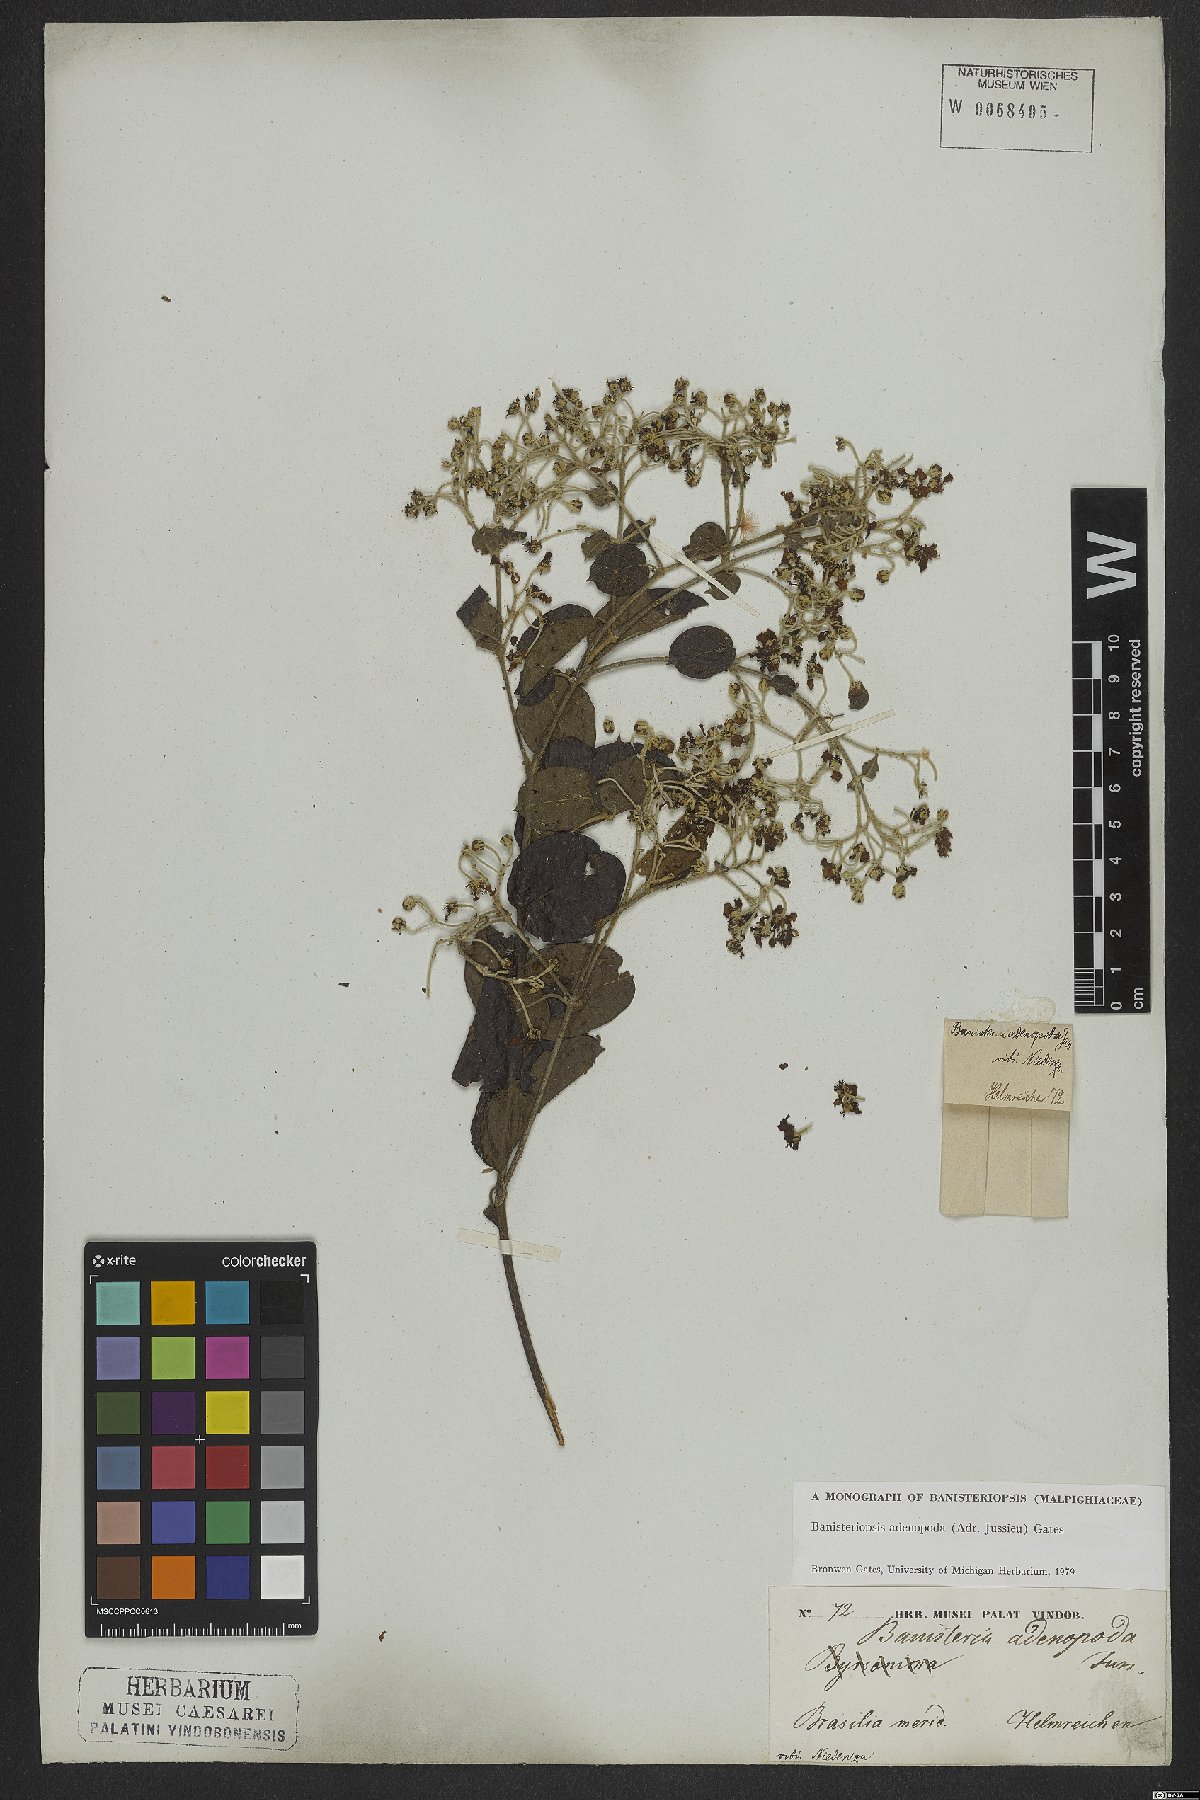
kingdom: Plantae
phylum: Tracheophyta
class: Magnoliopsida
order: Malpighiales
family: Malpighiaceae
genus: Banisteriopsis
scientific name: Banisteriopsis adenopoda
